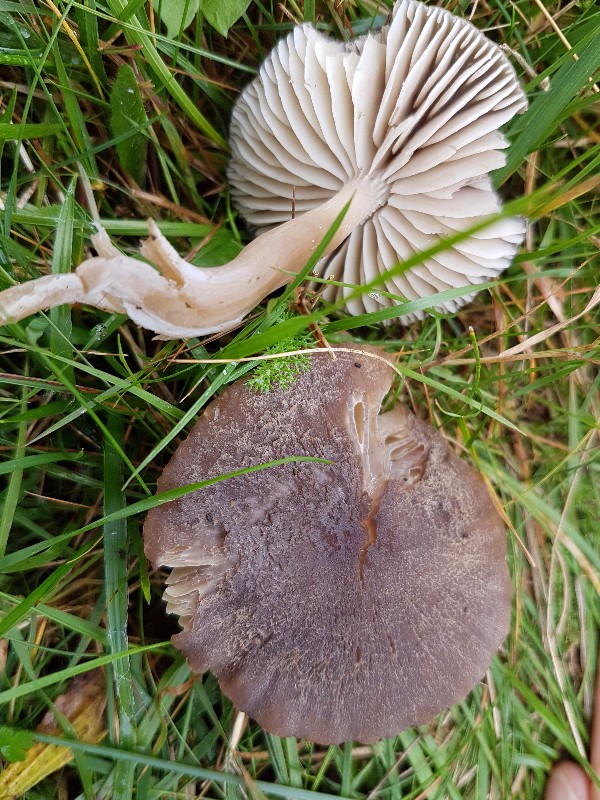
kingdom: Fungi
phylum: Basidiomycota
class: Agaricomycetes
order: Agaricales
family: Hygrophoraceae
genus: Neohygrocybe
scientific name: Neohygrocybe nitrata
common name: stinkende vokshat
